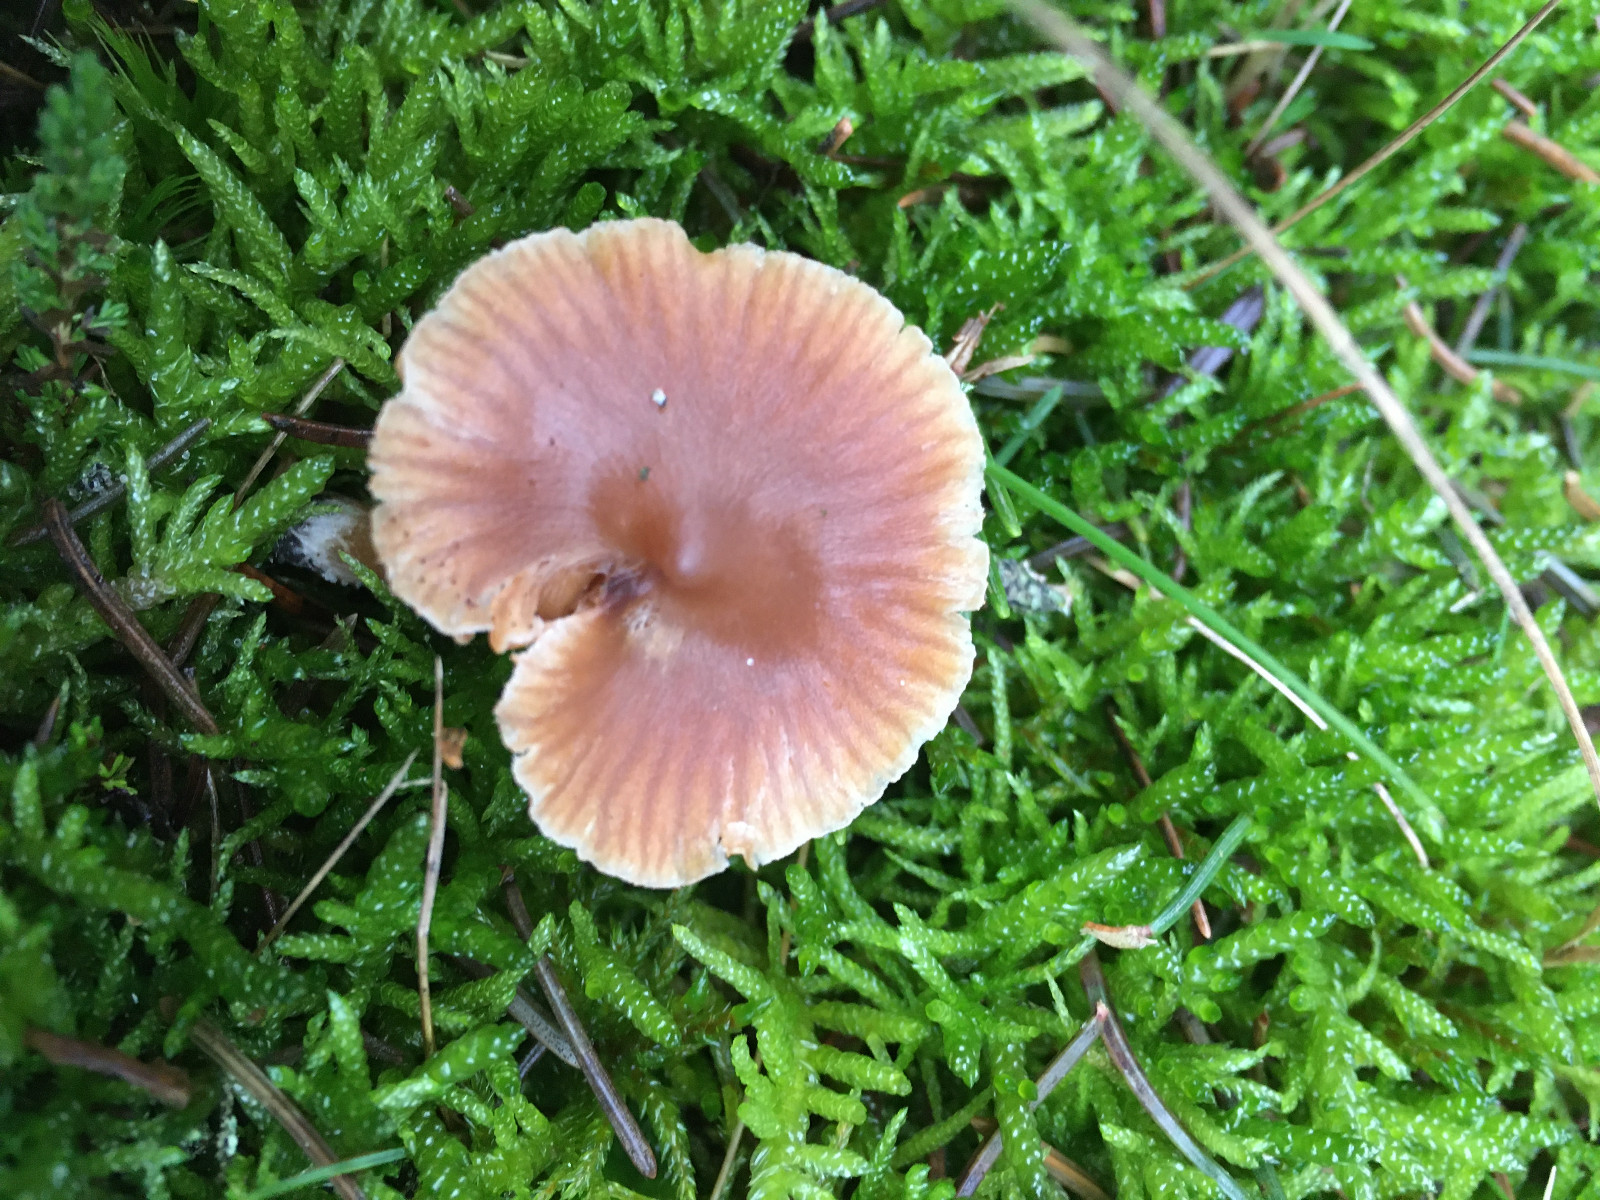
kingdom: Fungi
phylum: Basidiomycota
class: Agaricomycetes
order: Agaricales
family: Cortinariaceae
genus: Cortinarius
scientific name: Cortinarius
